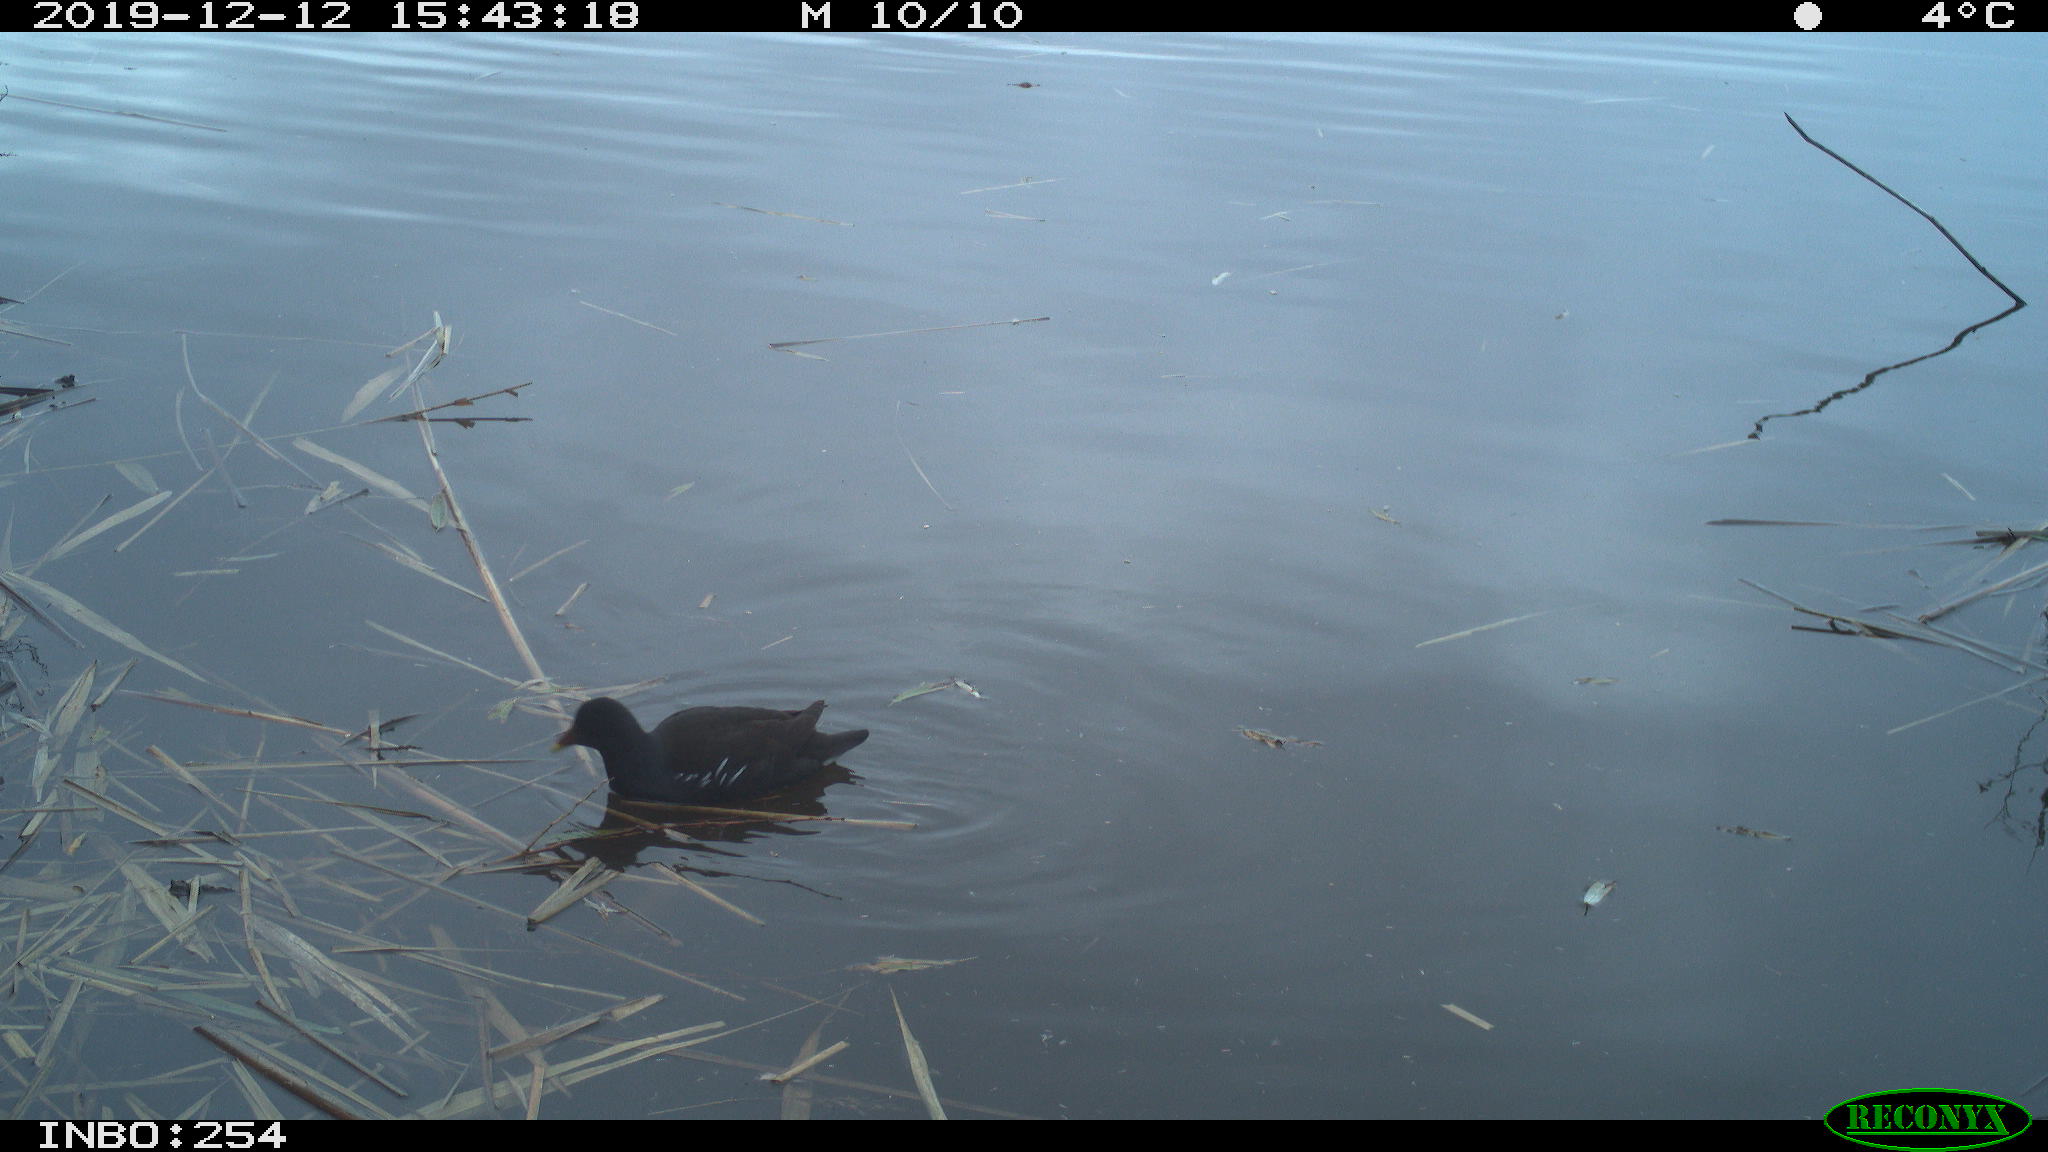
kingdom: Animalia
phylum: Chordata
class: Aves
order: Gruiformes
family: Rallidae
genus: Gallinula
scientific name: Gallinula chloropus
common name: Common moorhen
